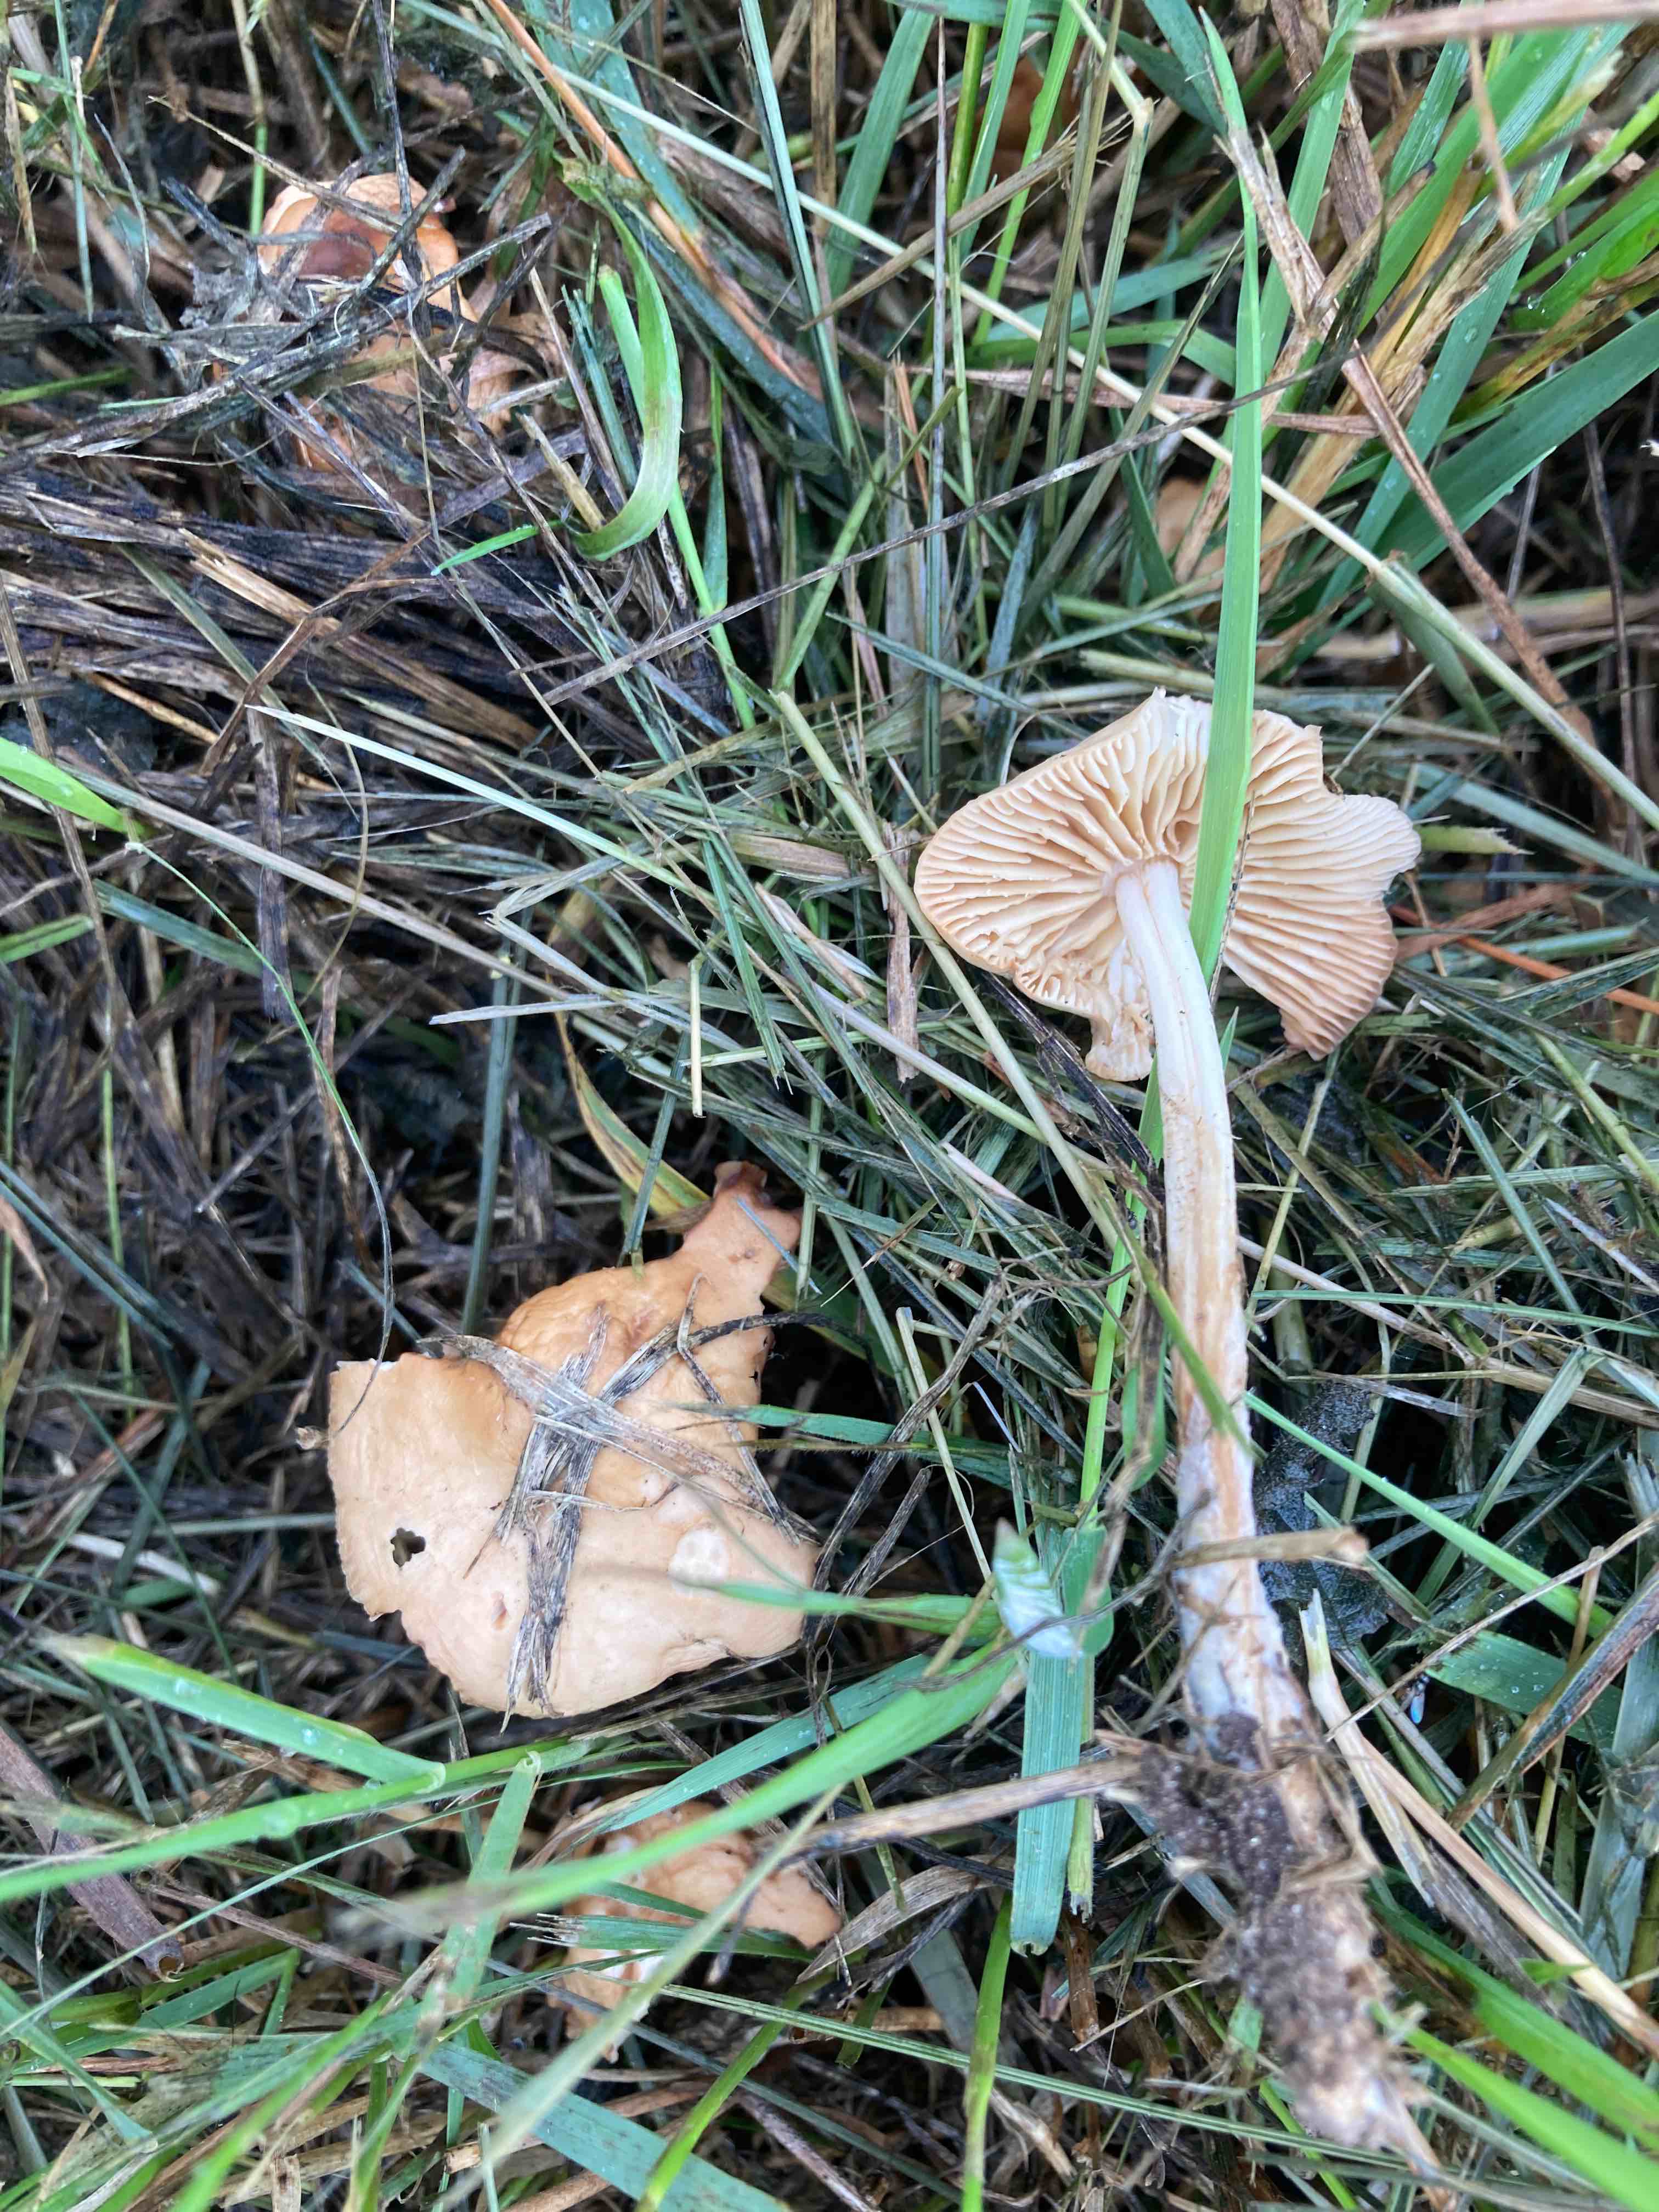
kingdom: Fungi
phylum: Basidiomycota
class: Agaricomycetes
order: Agaricales
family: Marasmiaceae
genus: Marasmius
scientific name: Marasmius oreades
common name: elledans-bruskhat
